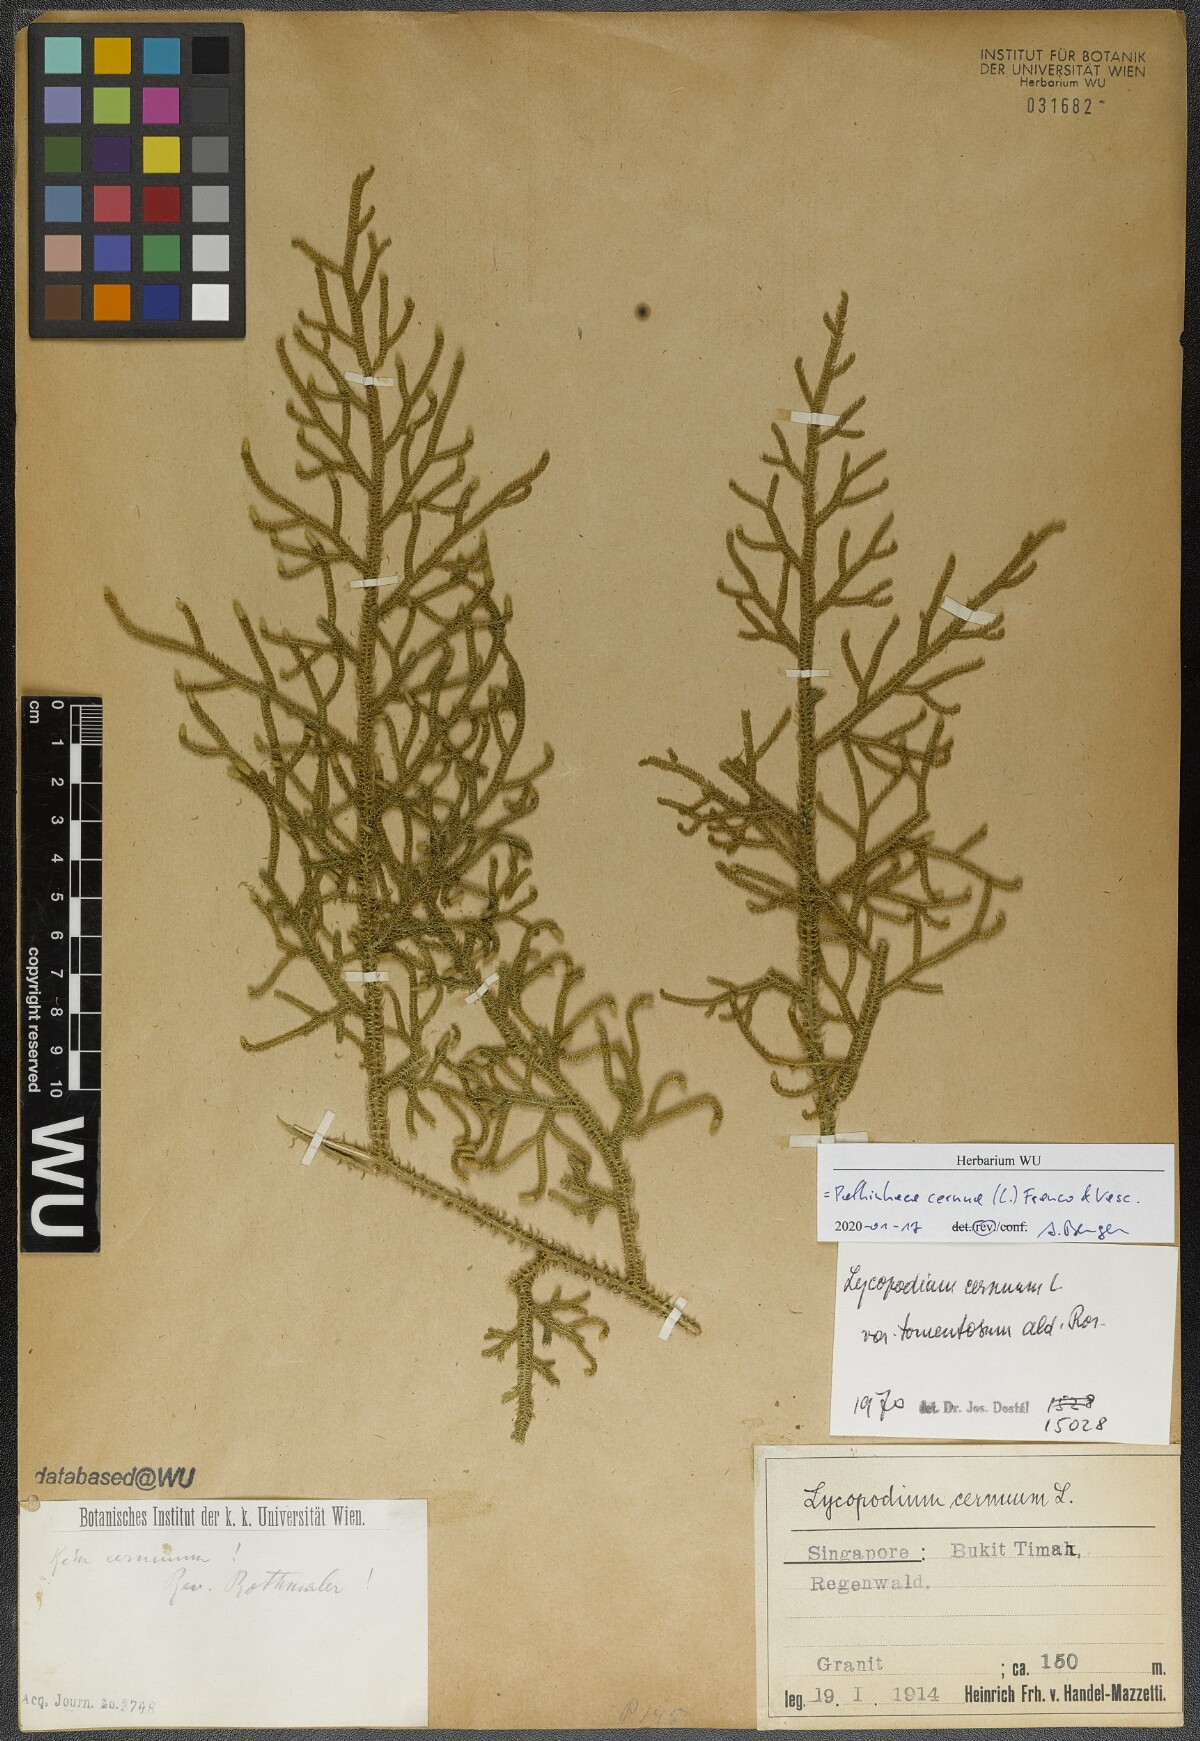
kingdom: Plantae
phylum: Tracheophyta
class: Lycopodiopsida
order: Lycopodiales
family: Lycopodiaceae
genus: Palhinhaea
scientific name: Palhinhaea cernua
